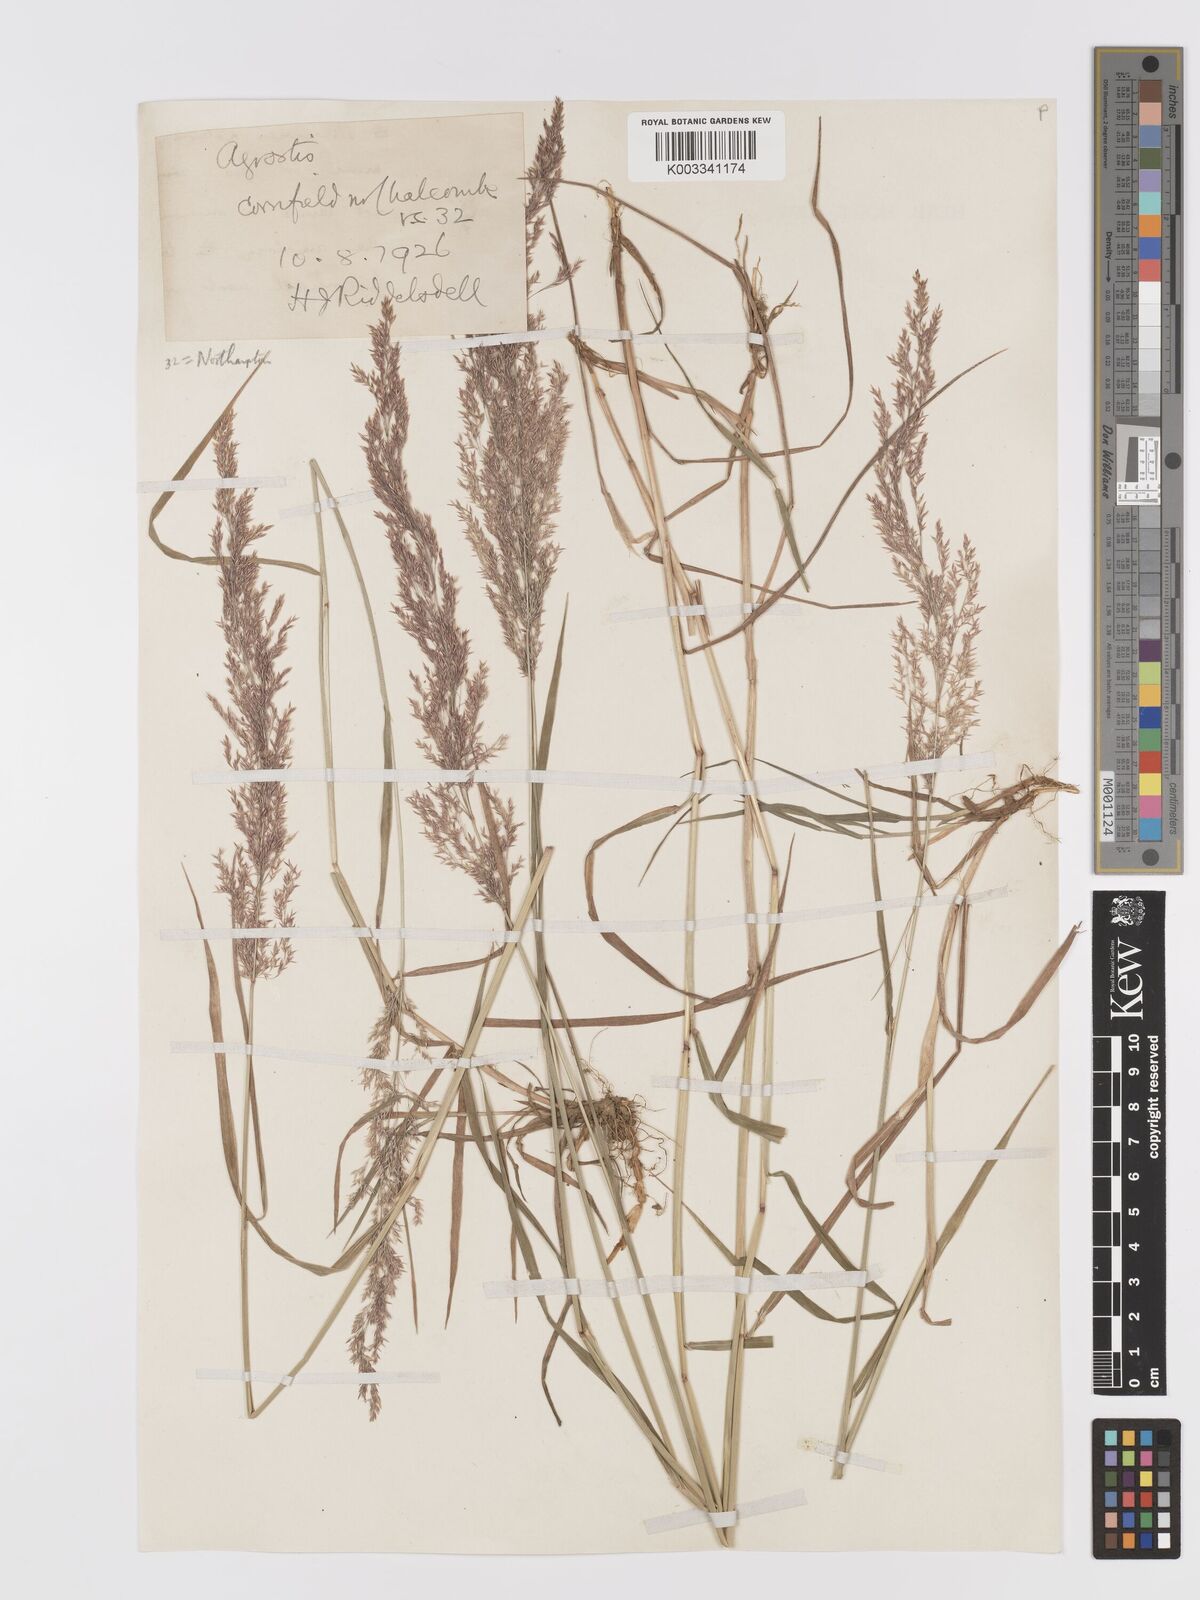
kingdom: Plantae
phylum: Tracheophyta
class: Liliopsida
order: Poales
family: Poaceae
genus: Agrostis
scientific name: Agrostis gigantea
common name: Black bent
